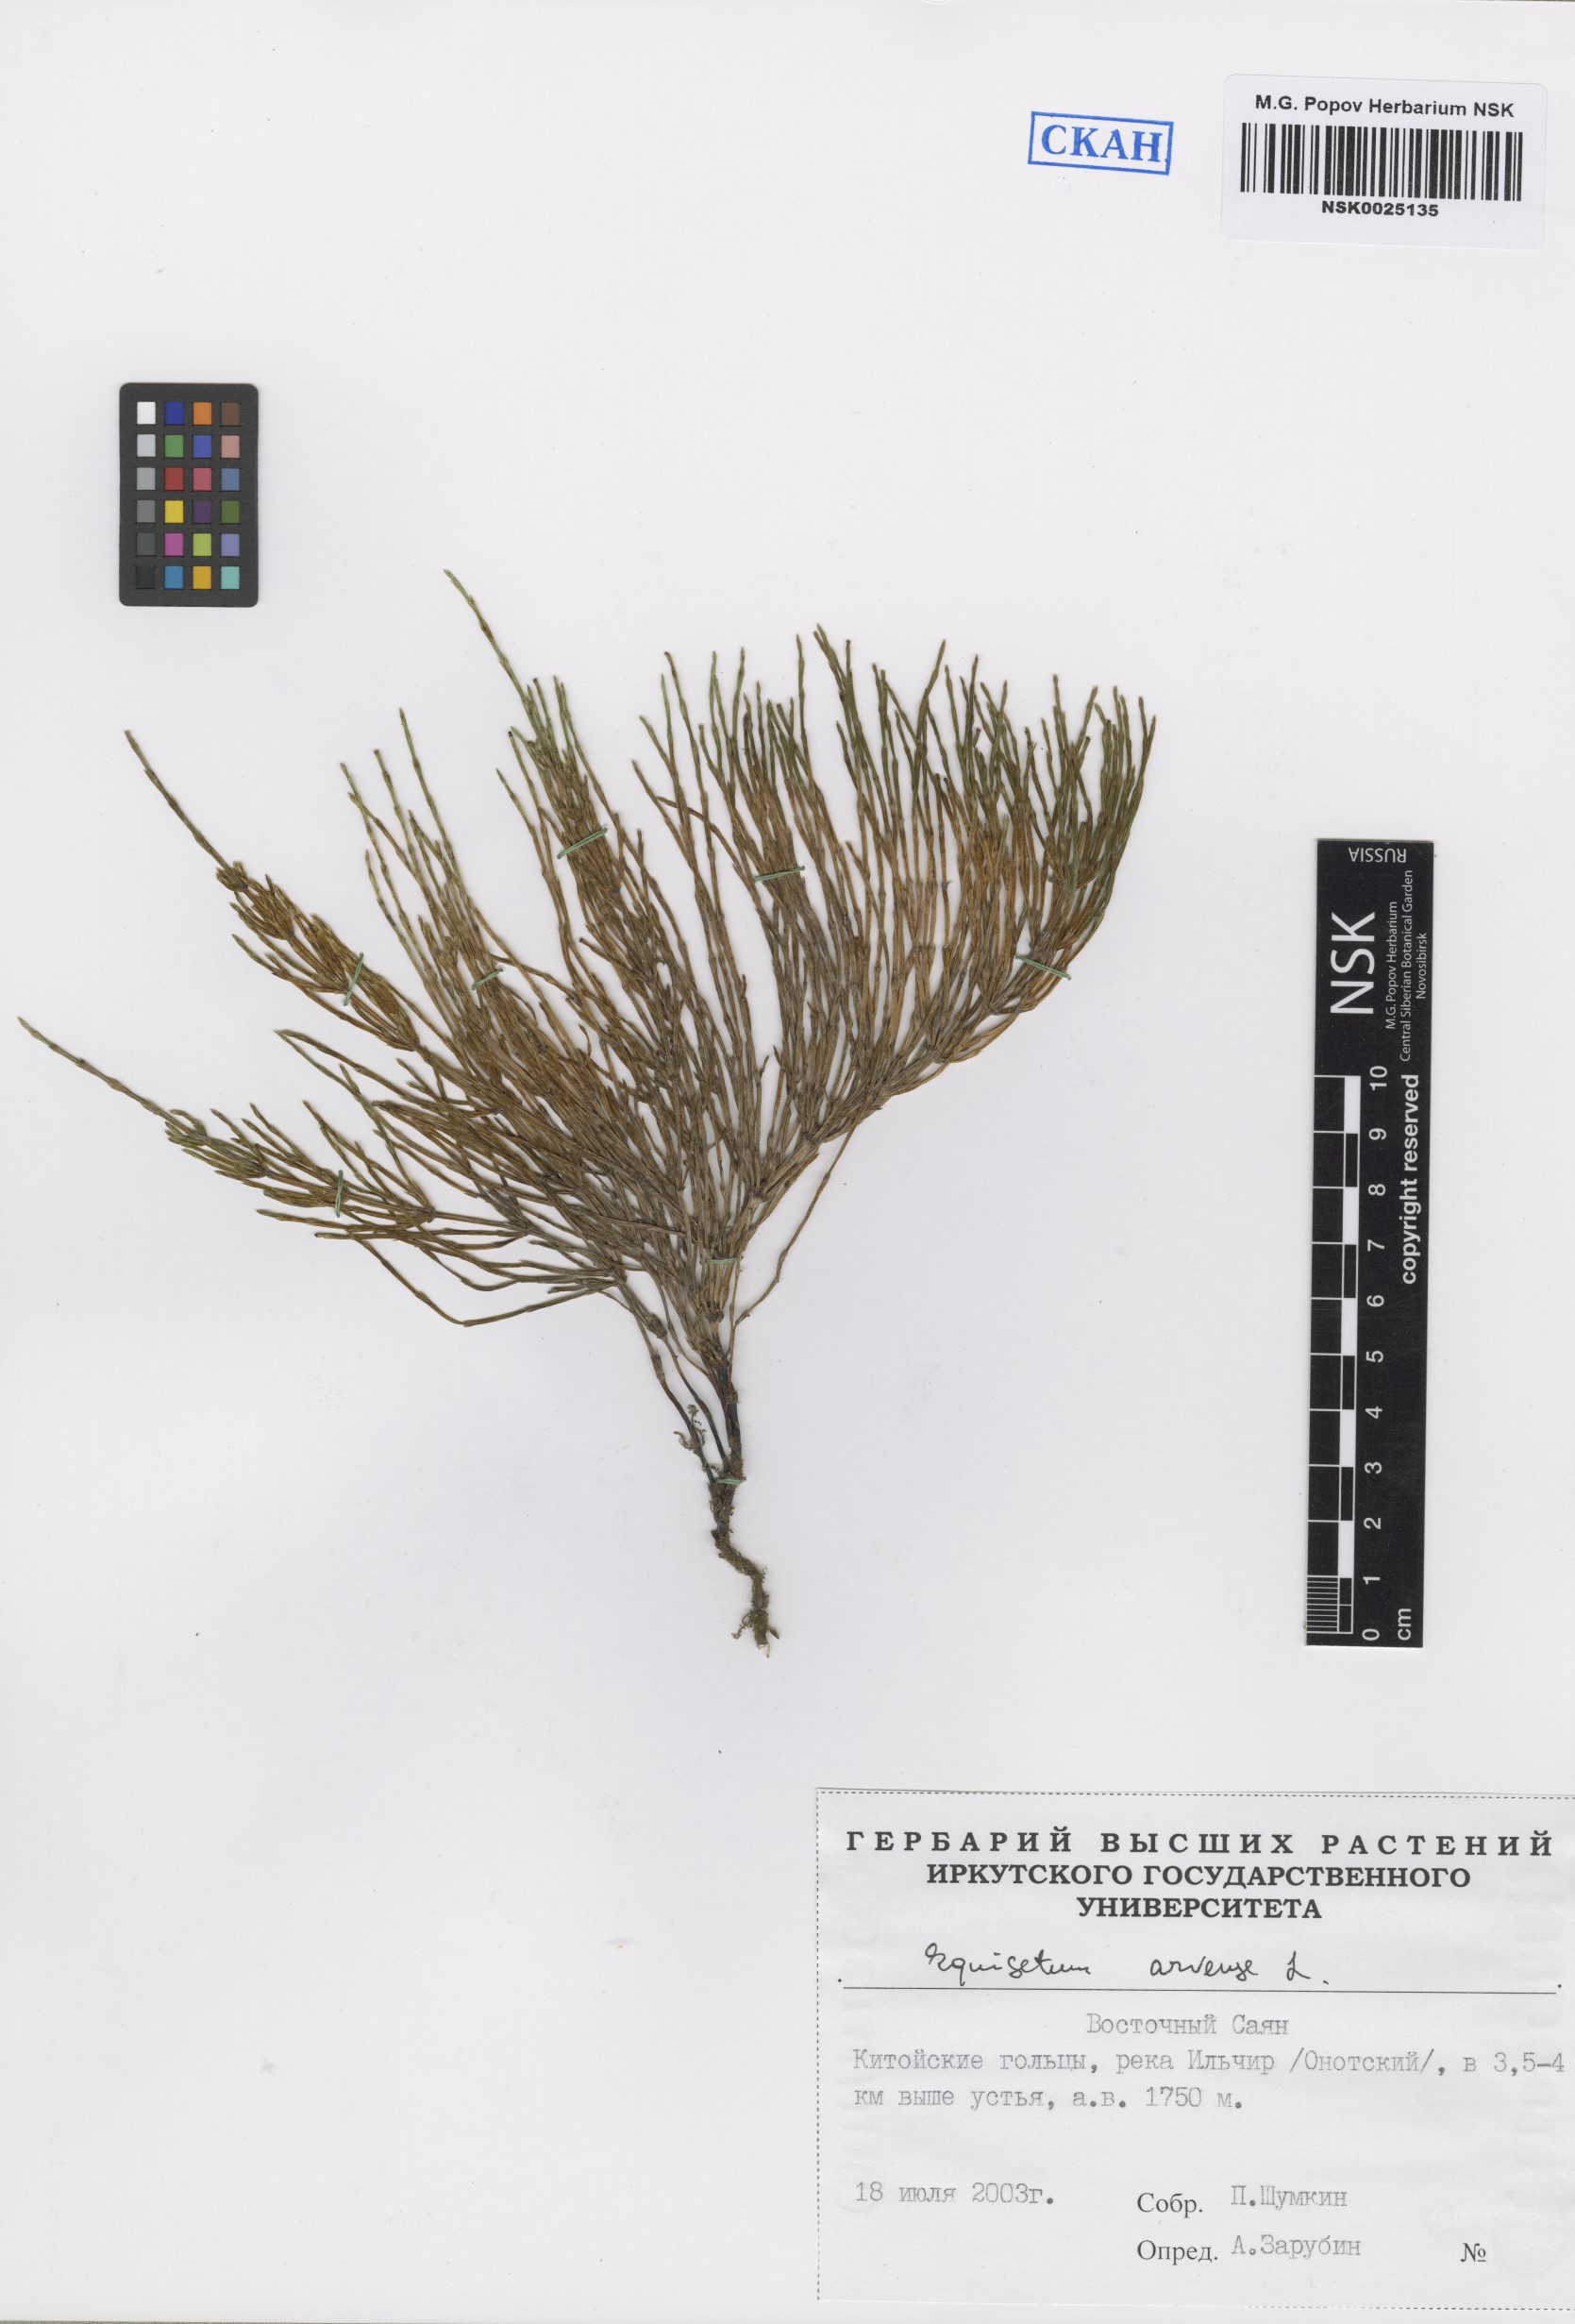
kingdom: Plantae
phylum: Tracheophyta
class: Polypodiopsida
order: Equisetales
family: Equisetaceae
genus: Equisetum
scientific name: Equisetum arvense
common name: Field horsetail
